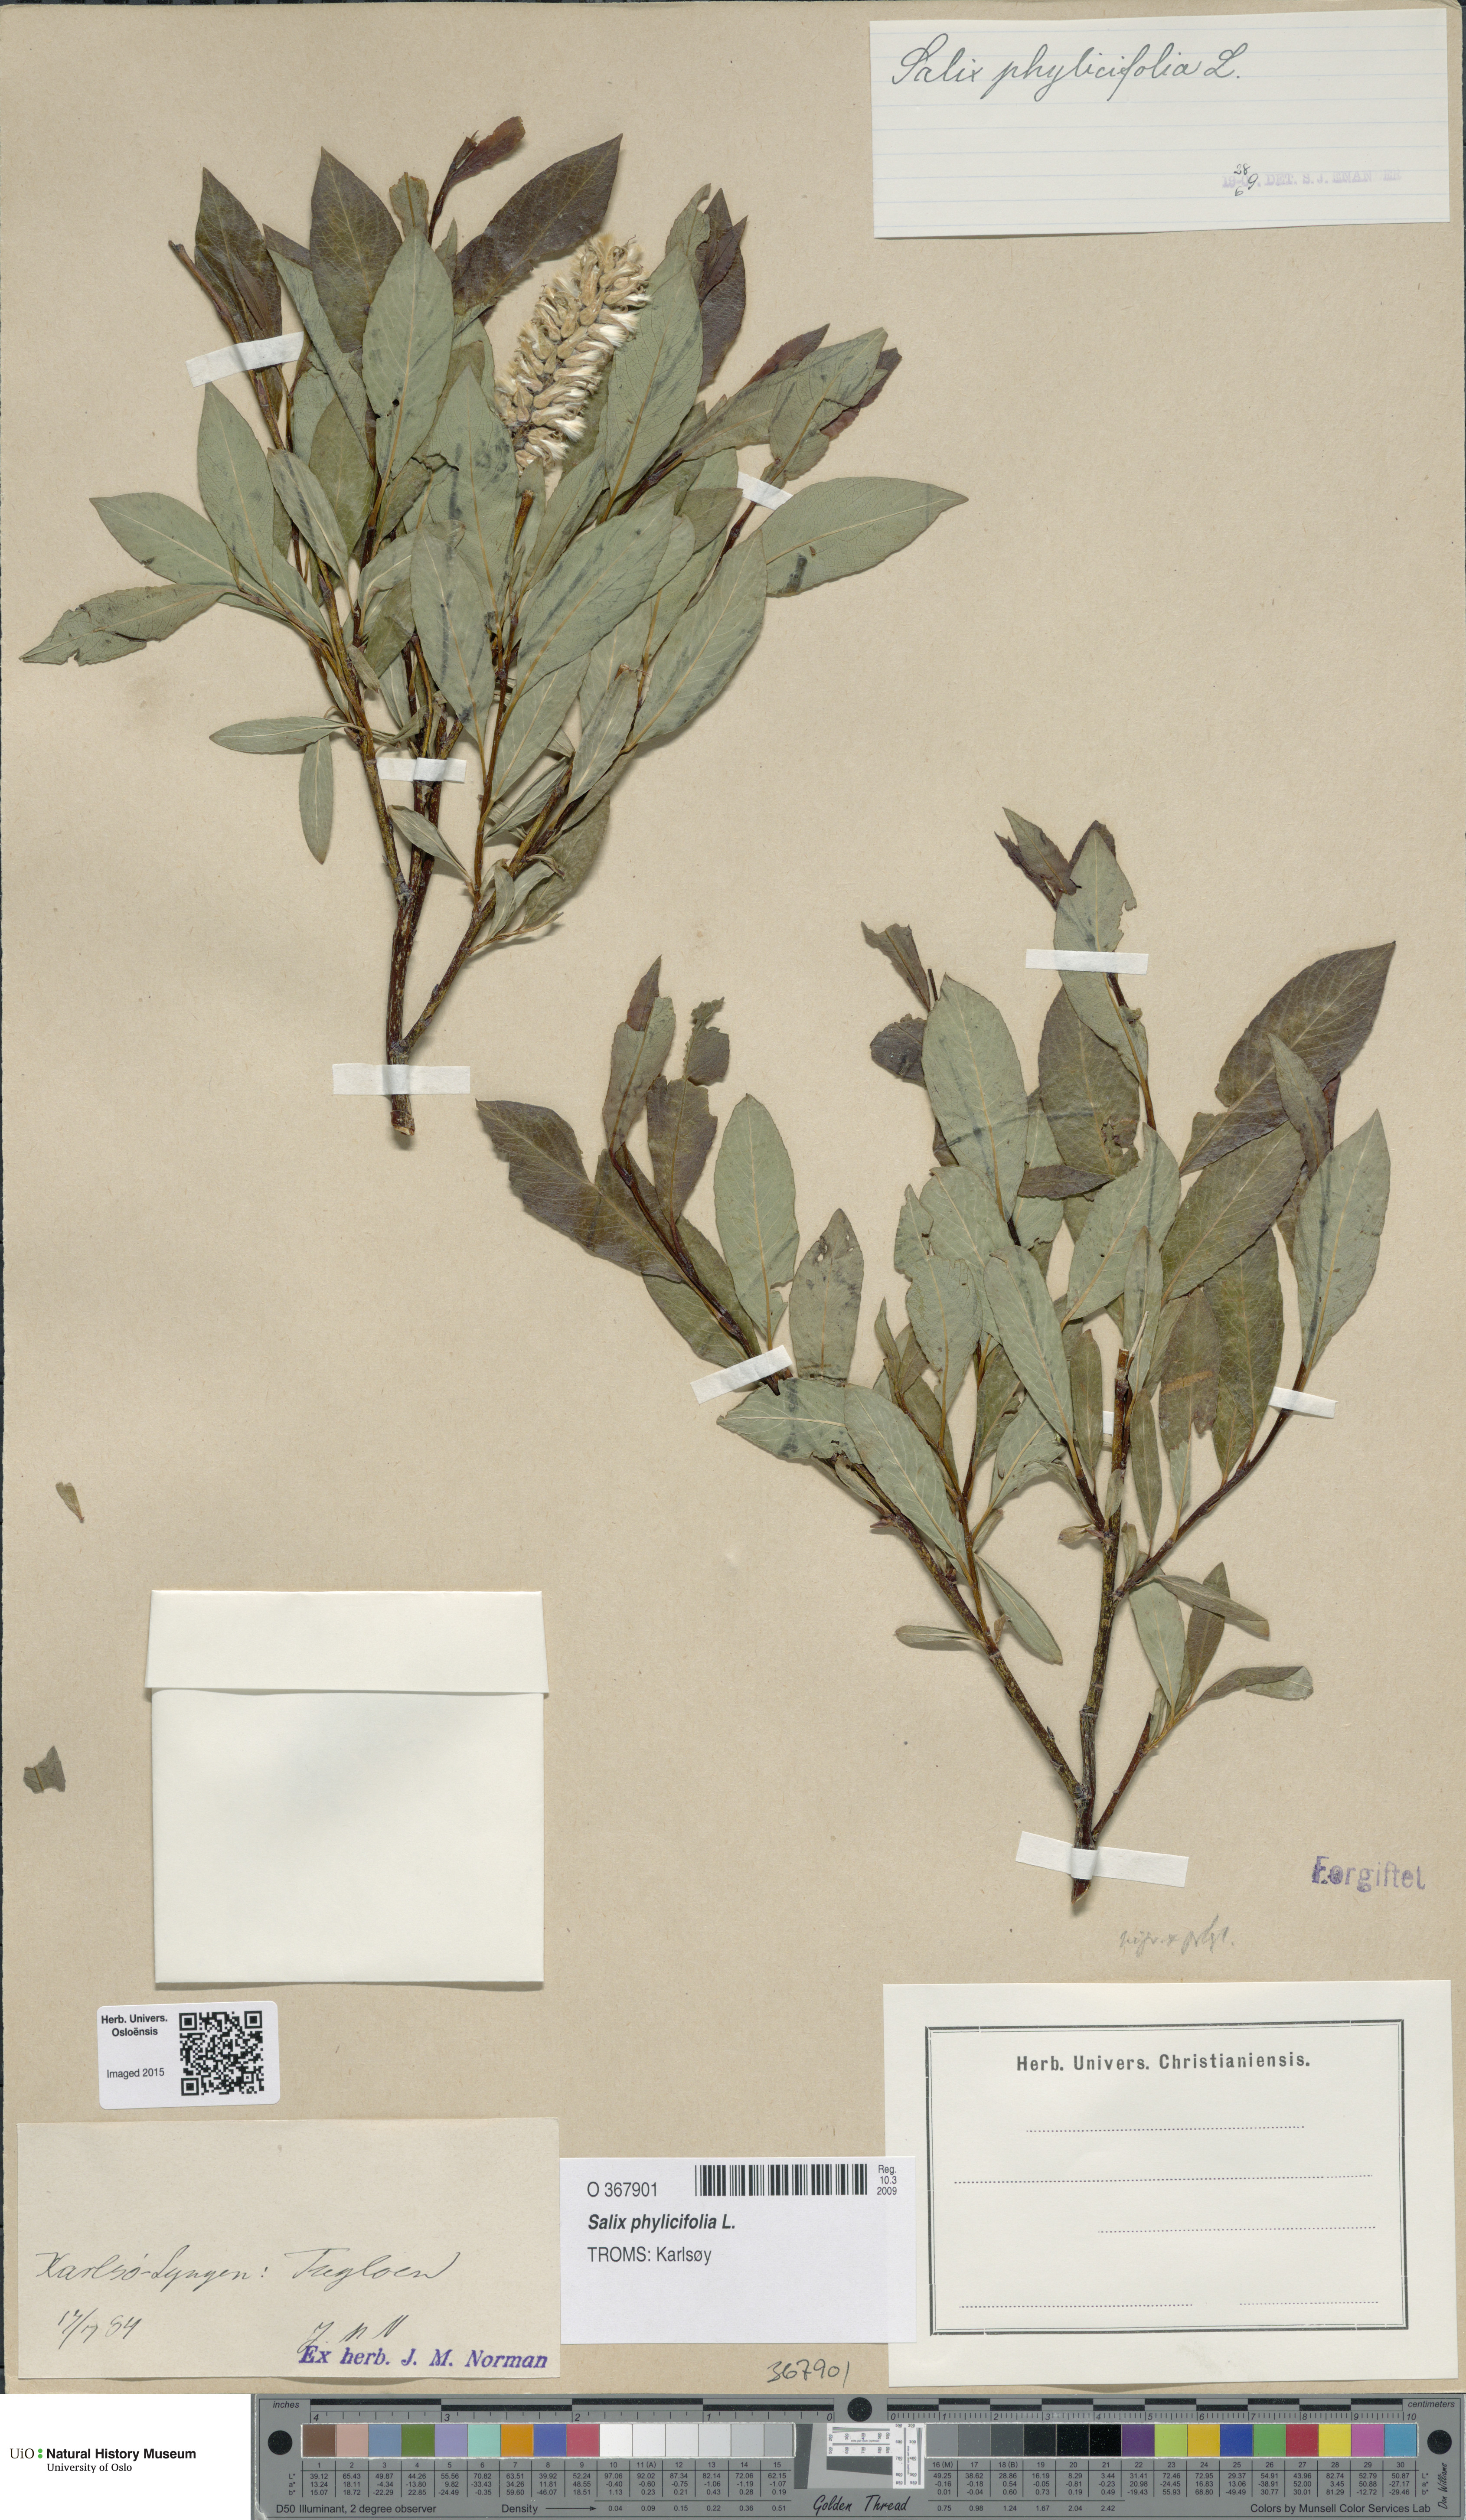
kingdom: Plantae
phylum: Tracheophyta
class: Magnoliopsida
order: Malpighiales
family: Salicaceae
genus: Salix
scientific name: Salix phylicifolia
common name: Tea-leaved willow
